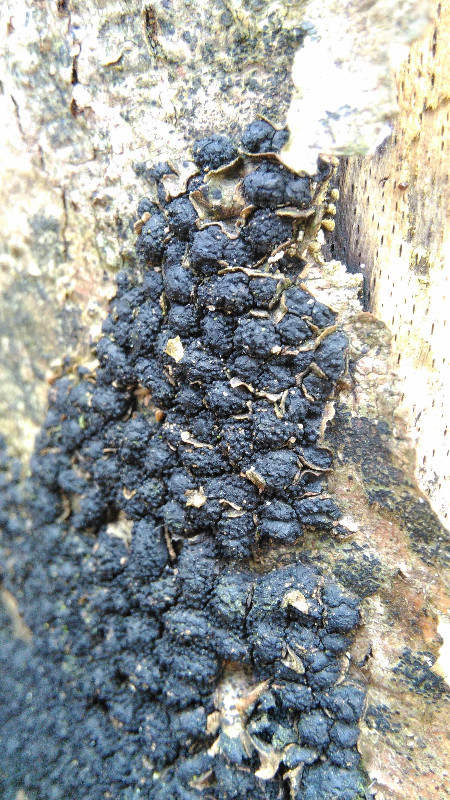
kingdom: Fungi
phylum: Ascomycota
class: Sordariomycetes
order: Xylariales
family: Melogrammataceae
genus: Melogramma
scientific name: Melogramma spiniferum
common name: bøgefod-kulhals
